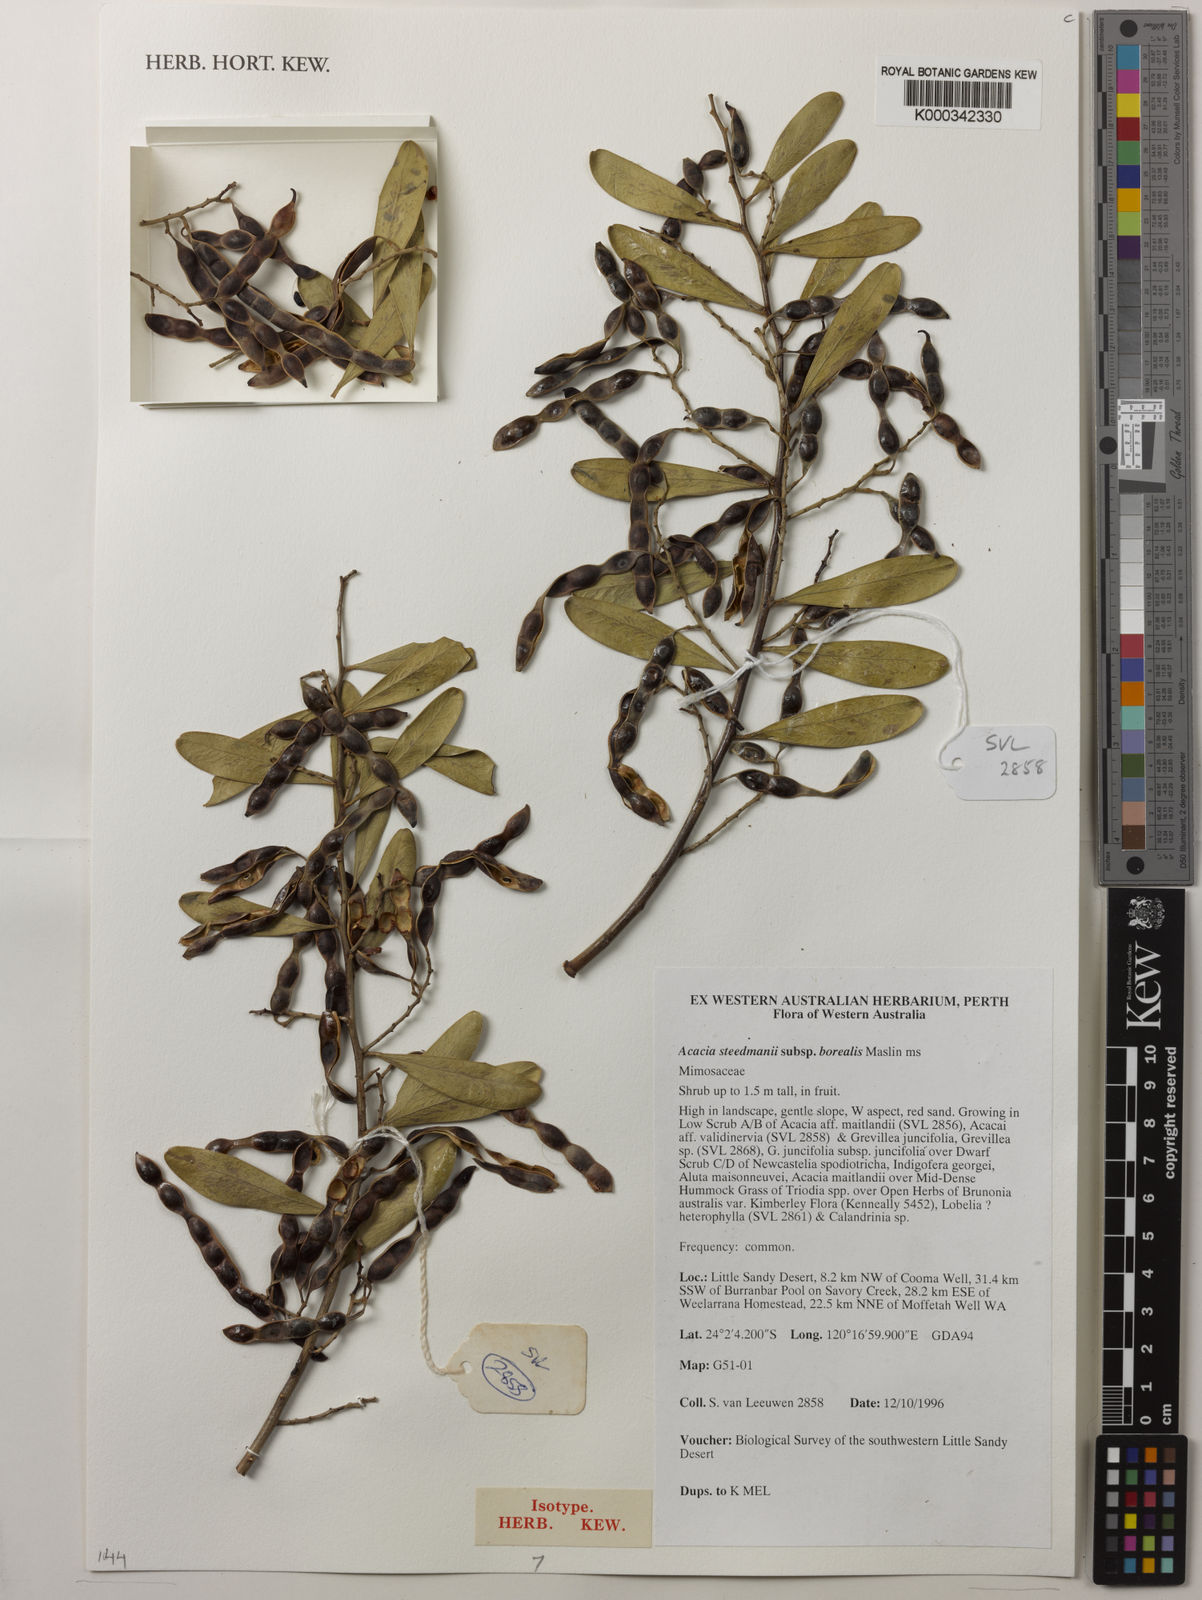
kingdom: Plantae
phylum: Tracheophyta
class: Magnoliopsida
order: Fabales
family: Fabaceae
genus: Acacia
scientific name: Acacia steedmanii
